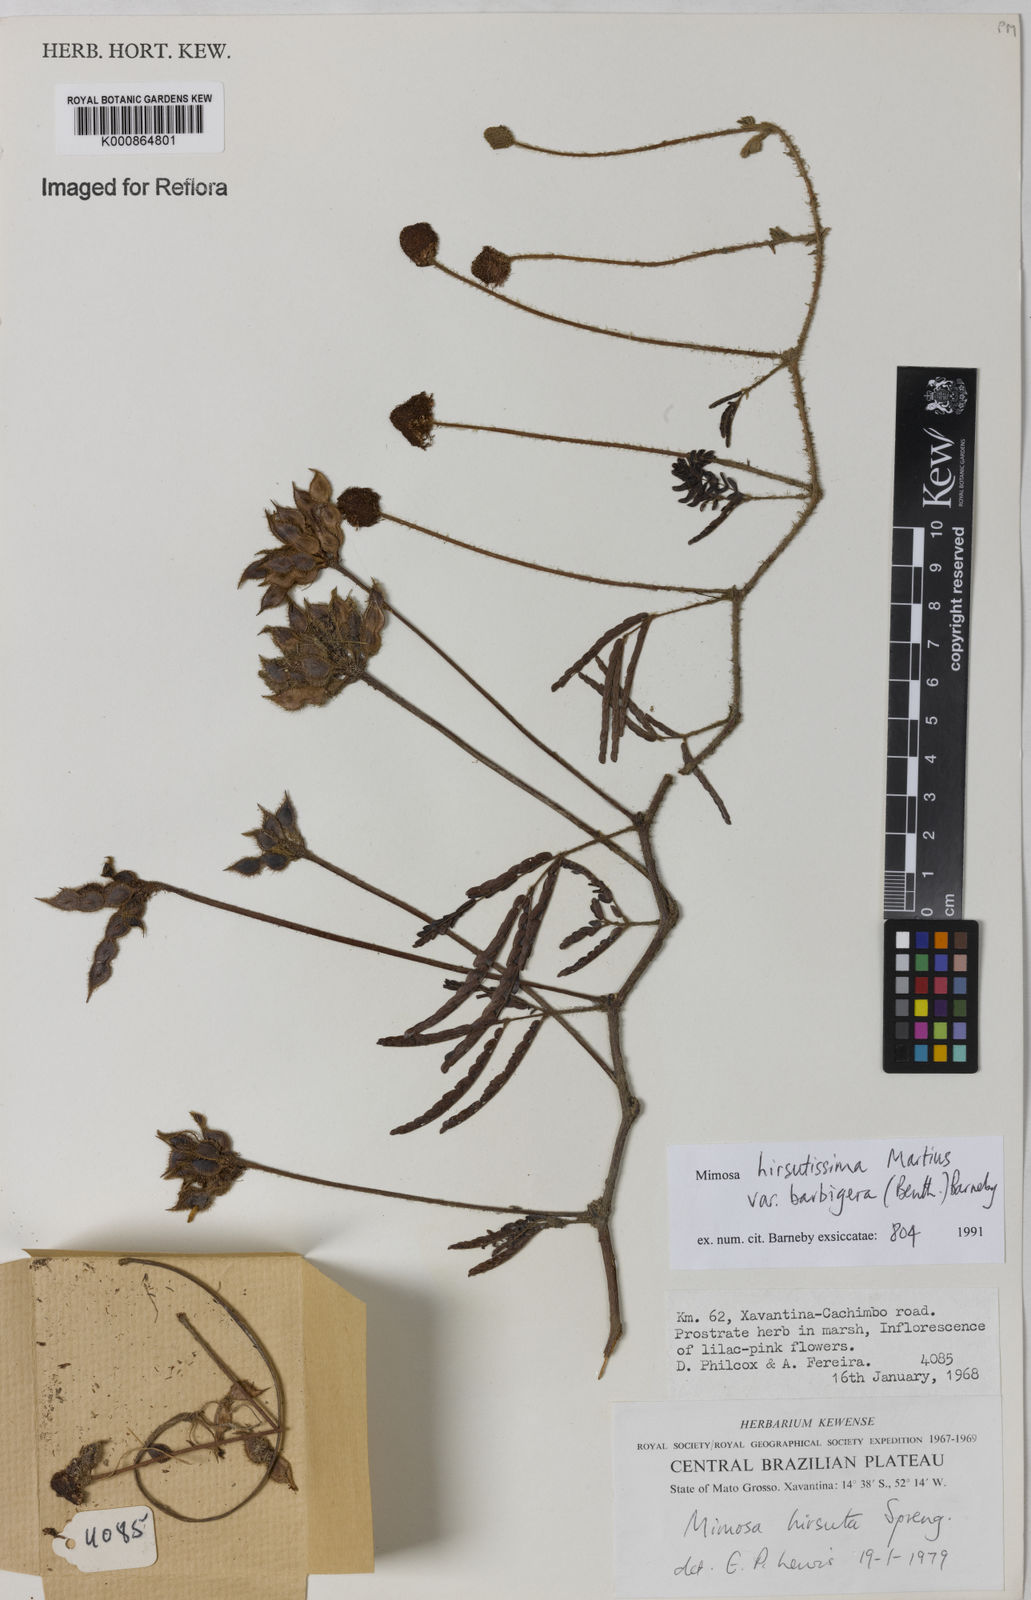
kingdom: Plantae
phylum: Tracheophyta
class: Magnoliopsida
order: Fabales
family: Fabaceae
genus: Mimosa
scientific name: Mimosa hirsutissima
